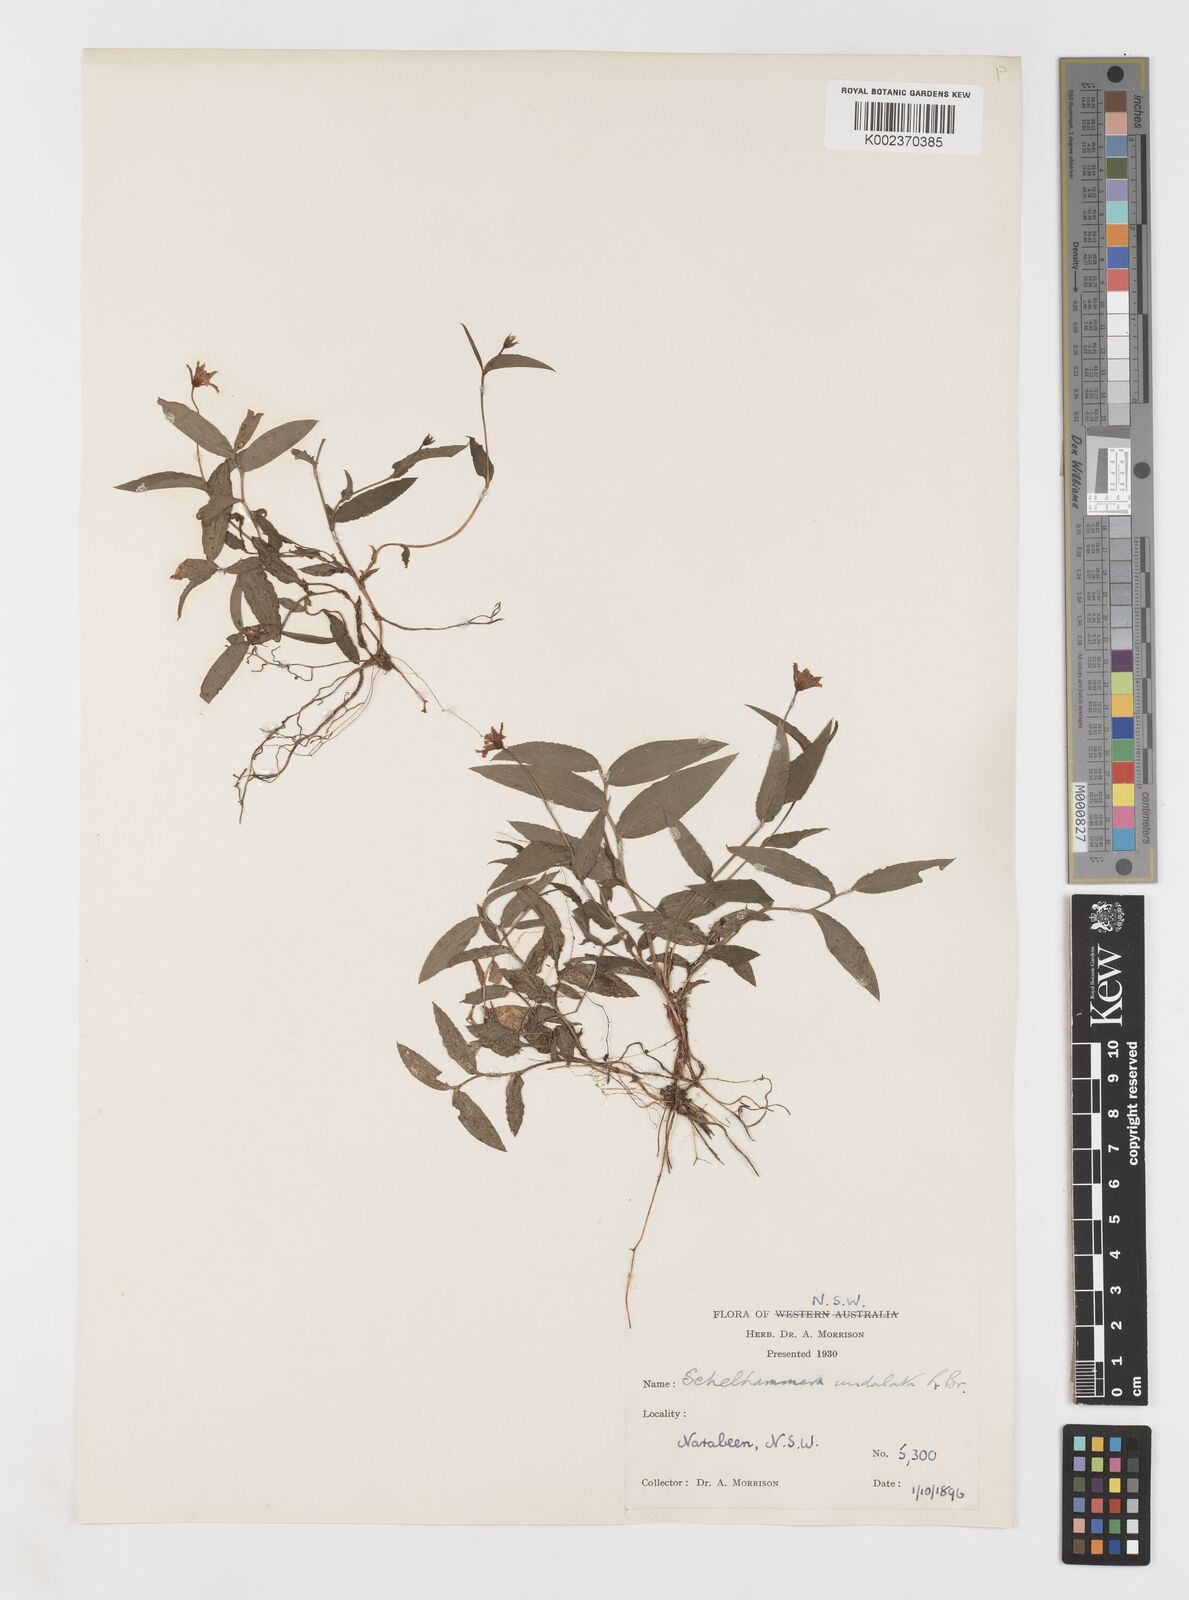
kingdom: Plantae
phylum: Tracheophyta
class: Liliopsida
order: Liliales
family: Colchicaceae
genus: Schelhammera
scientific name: Schelhammera undulata
